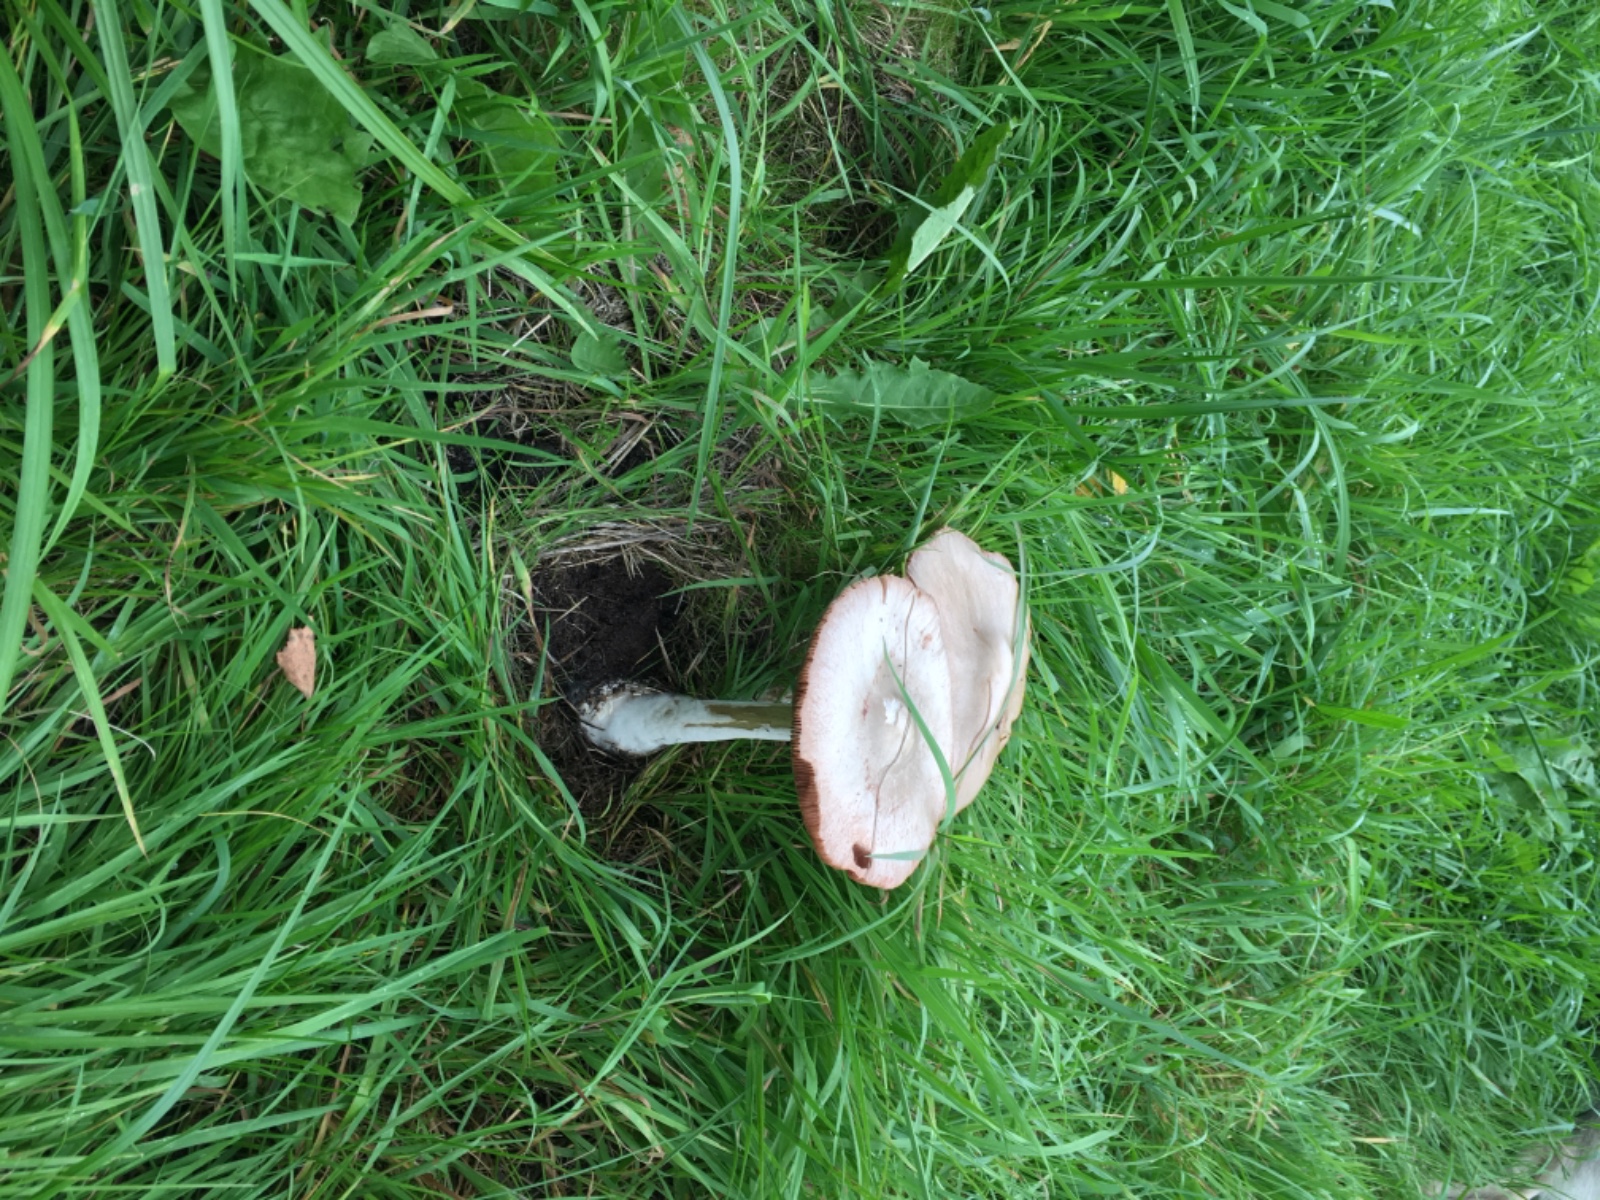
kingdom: Fungi
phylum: Basidiomycota
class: Agaricomycetes
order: Agaricales
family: Pluteaceae
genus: Volvopluteus
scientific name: Volvopluteus gloiocephalus
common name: høj posesvamp
